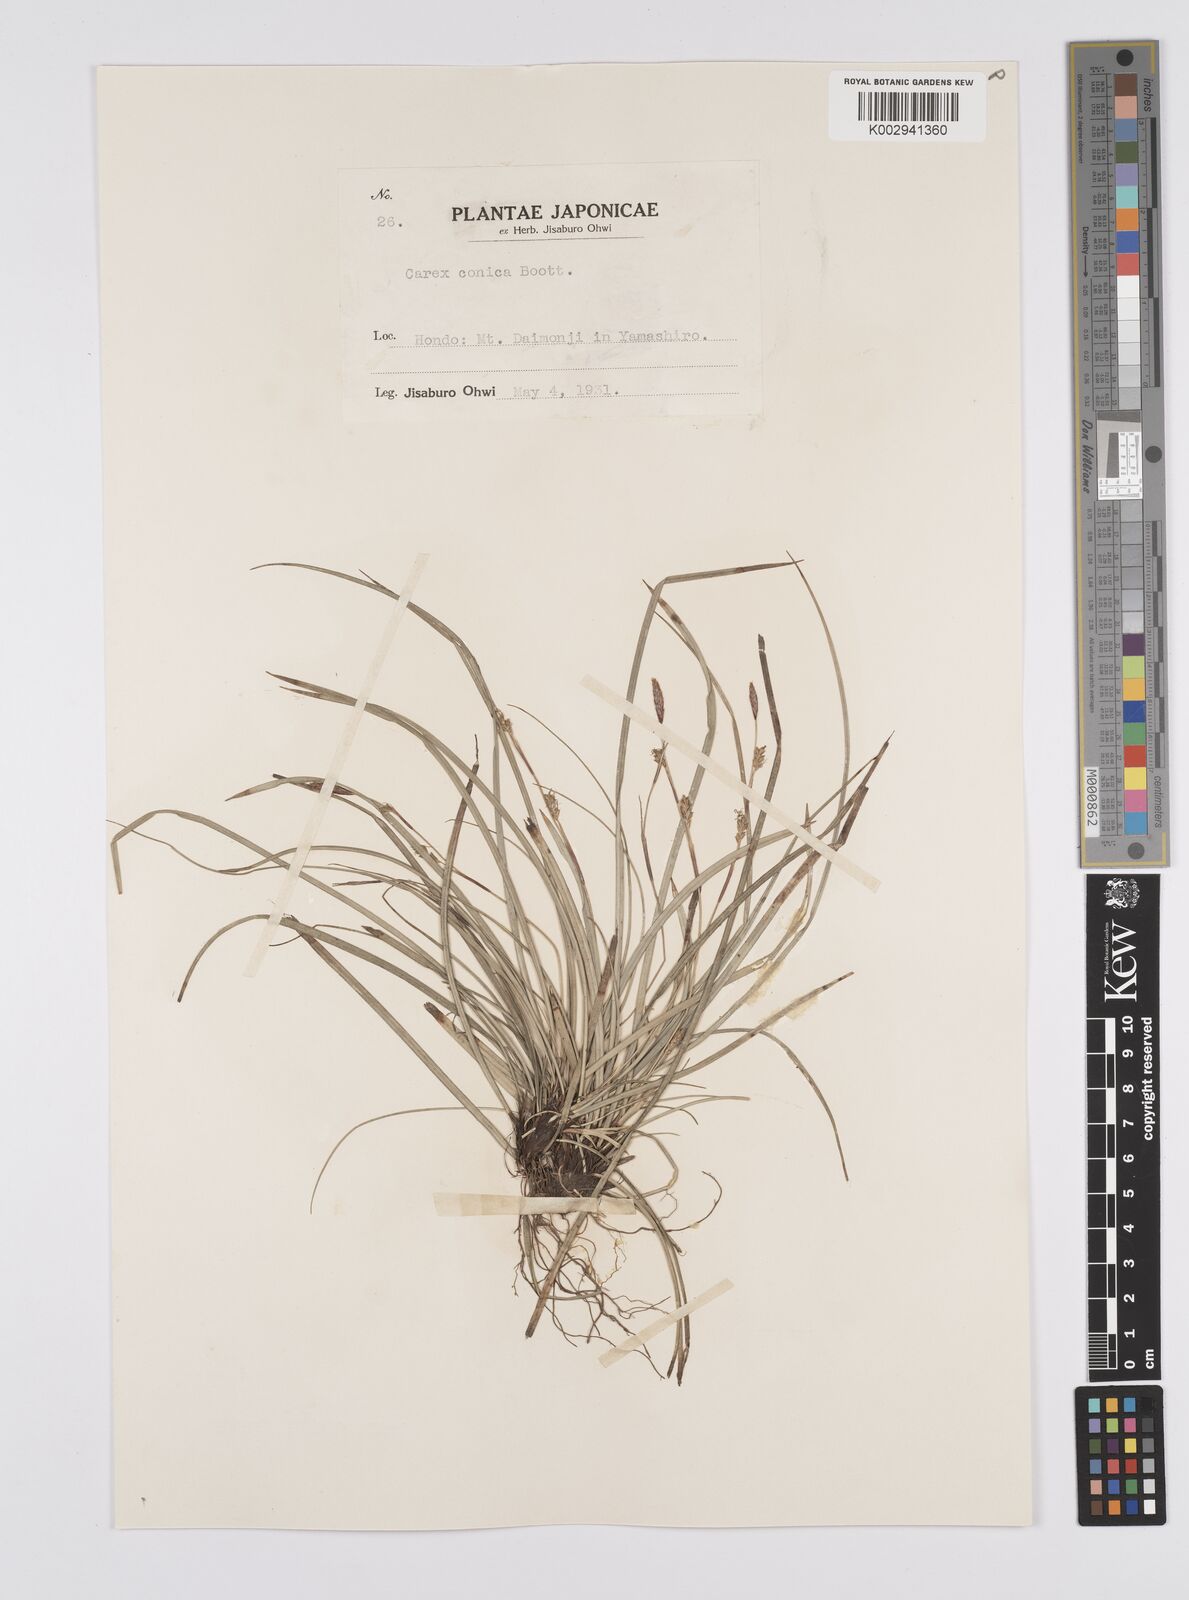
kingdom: Plantae
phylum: Tracheophyta
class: Liliopsida
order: Poales
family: Cyperaceae
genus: Carex
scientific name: Carex conica
